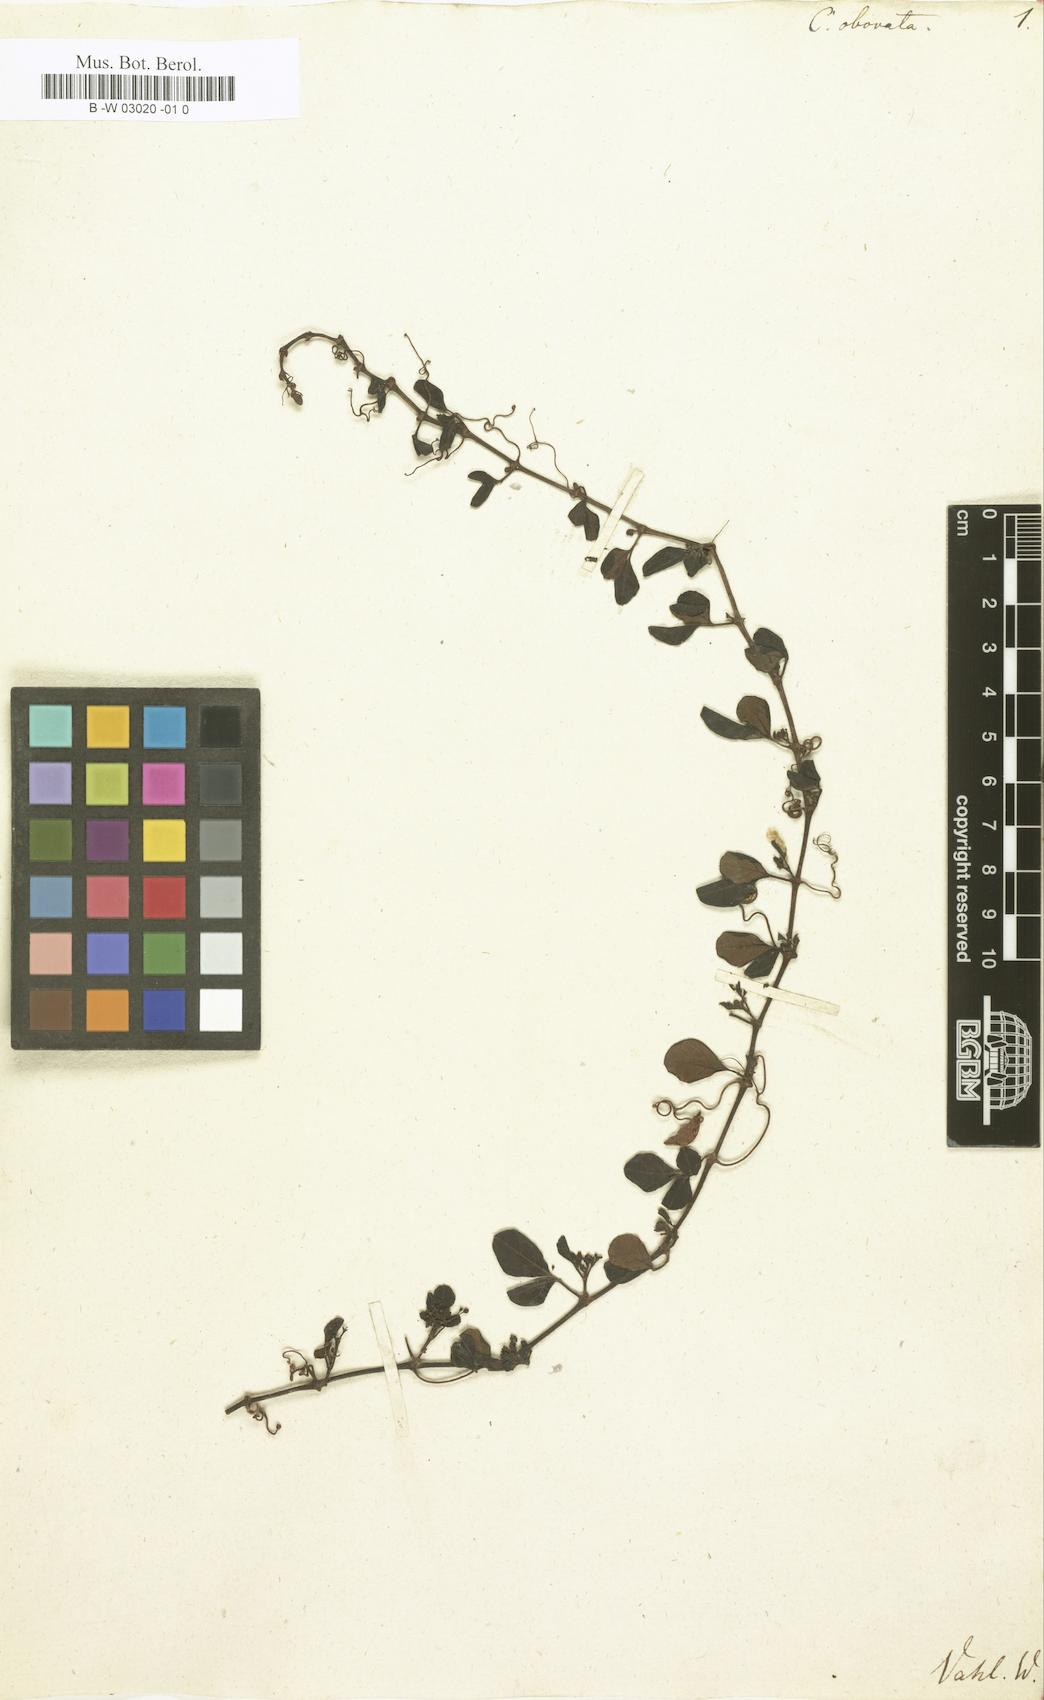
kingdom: Plantae
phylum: Tracheophyta
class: Magnoliopsida
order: Vitales
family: Vitaceae
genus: Cissus
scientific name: Cissus obovata
